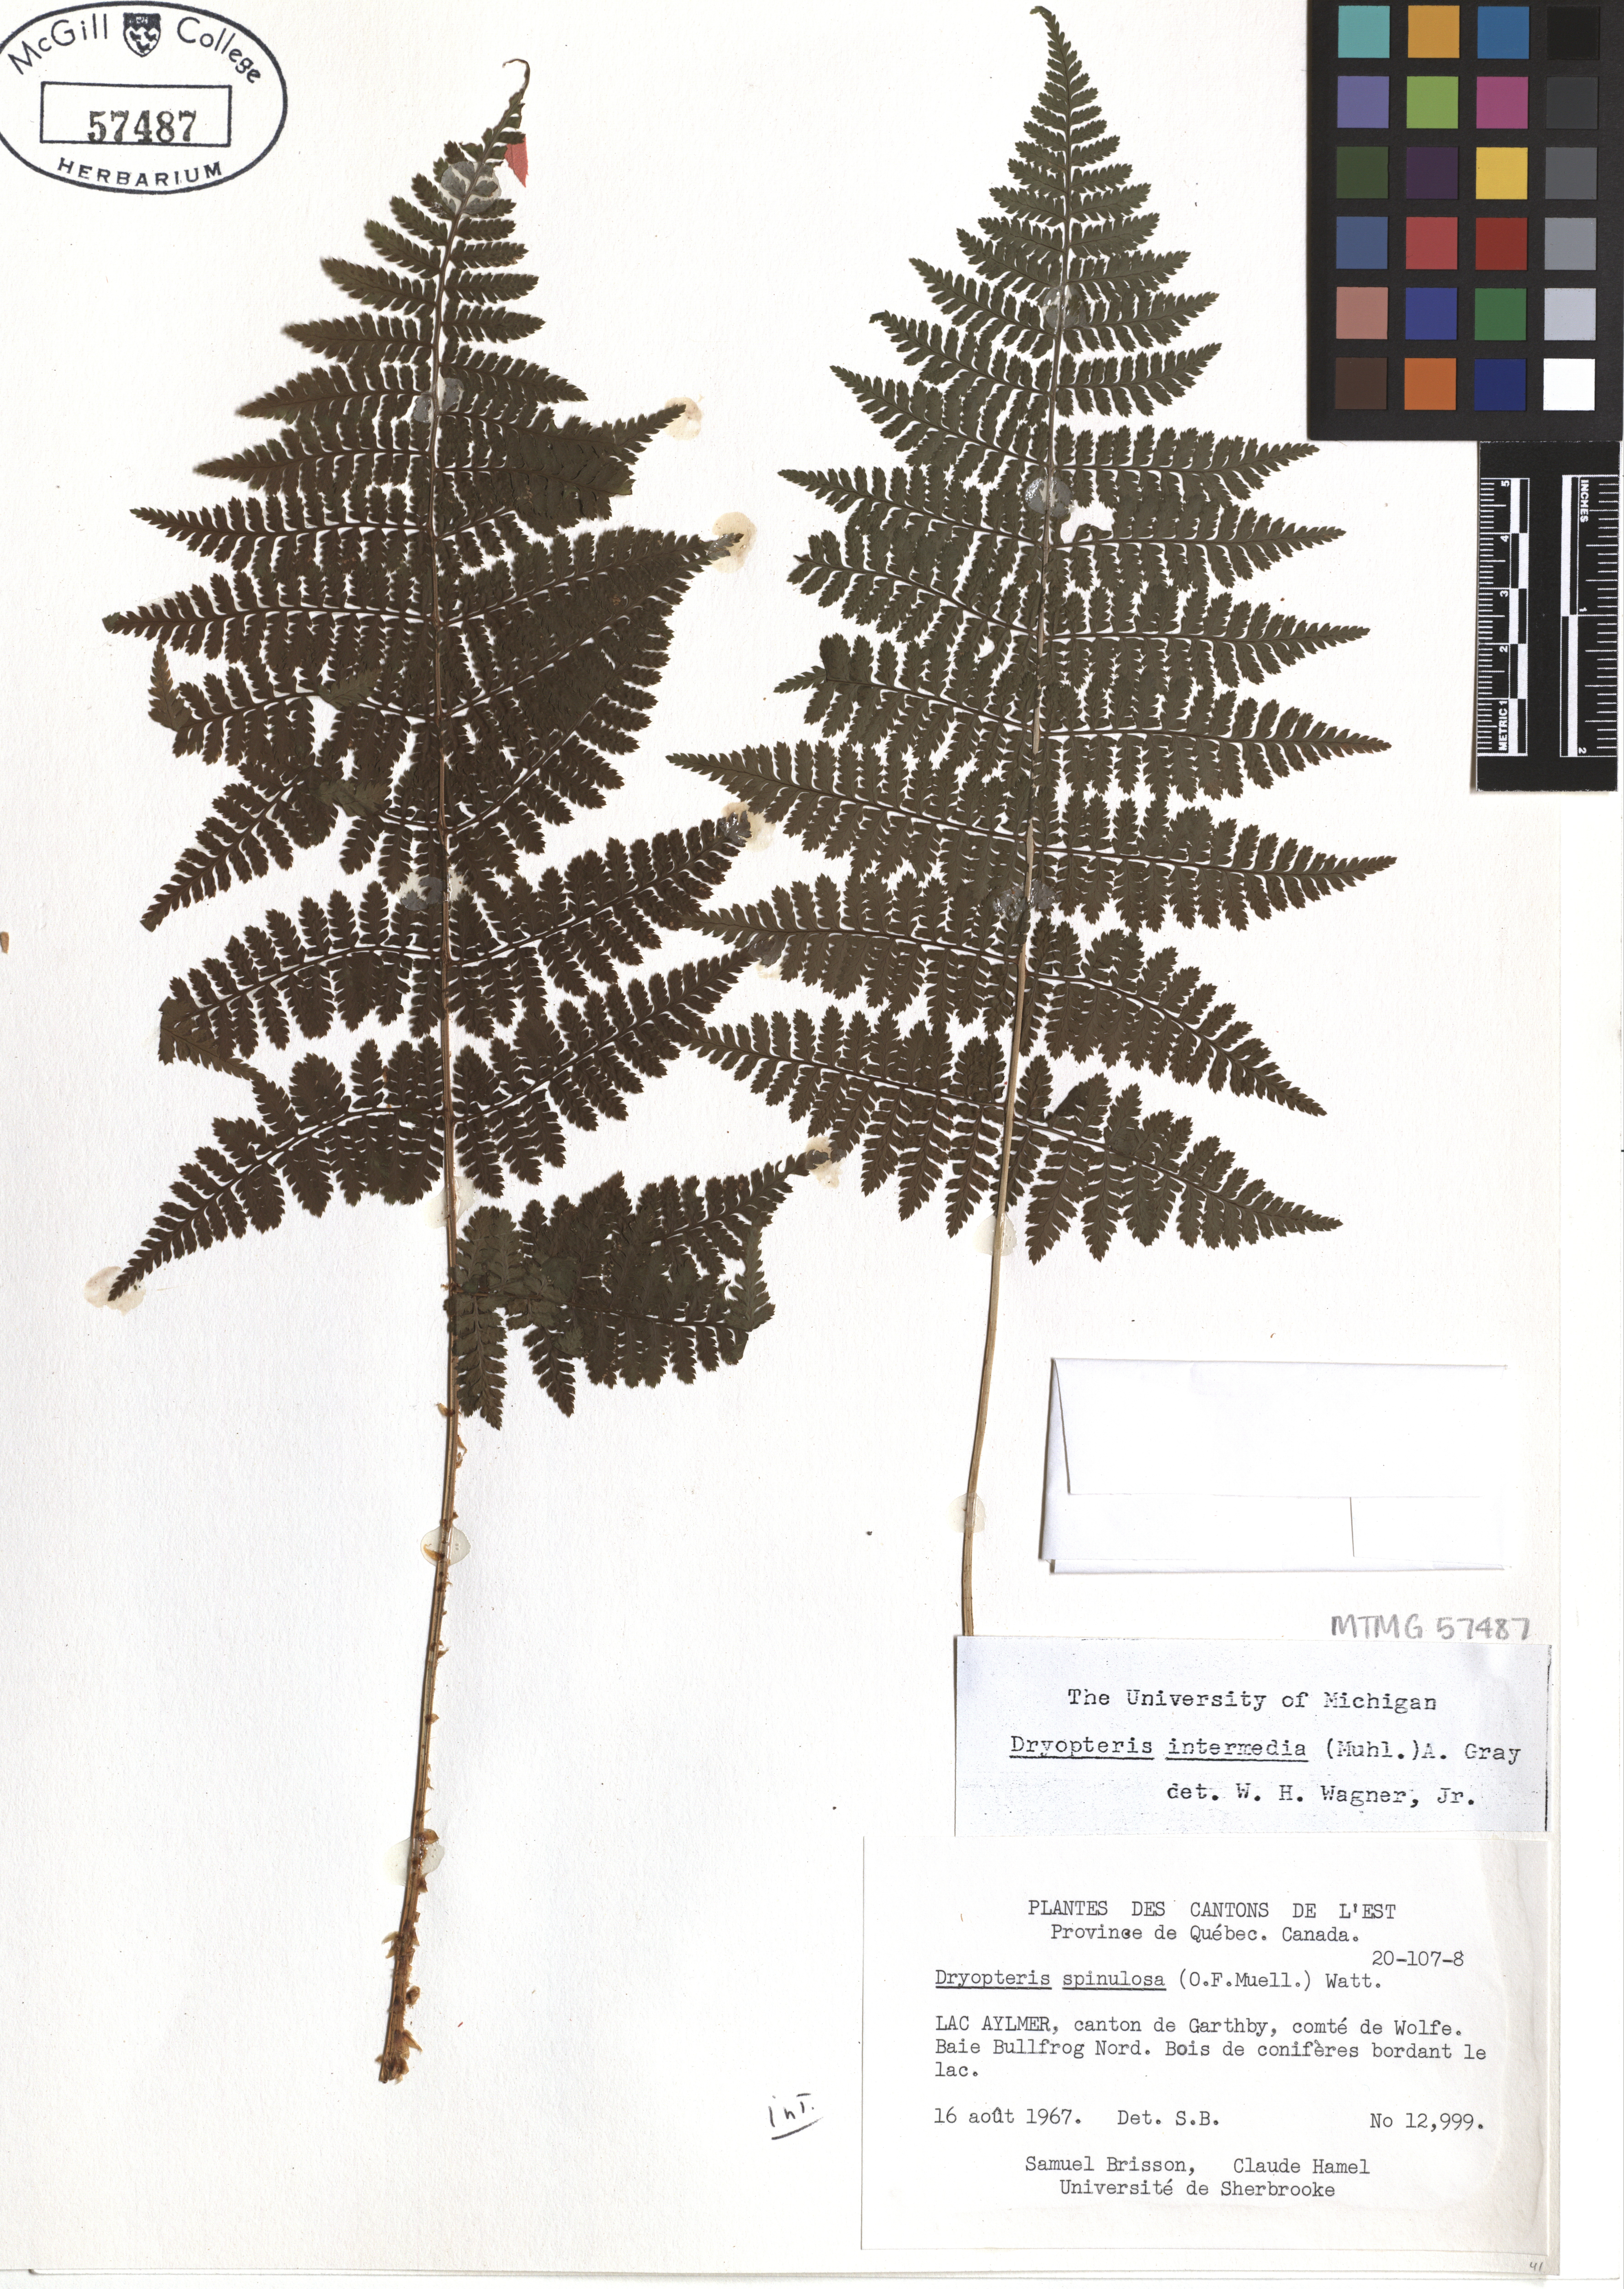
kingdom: Plantae
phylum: Tracheophyta
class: Polypodiopsida
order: Polypodiales
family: Dryopteridaceae
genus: Dryopteris
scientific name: Dryopteris intermedia
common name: Evergreen wood fern
